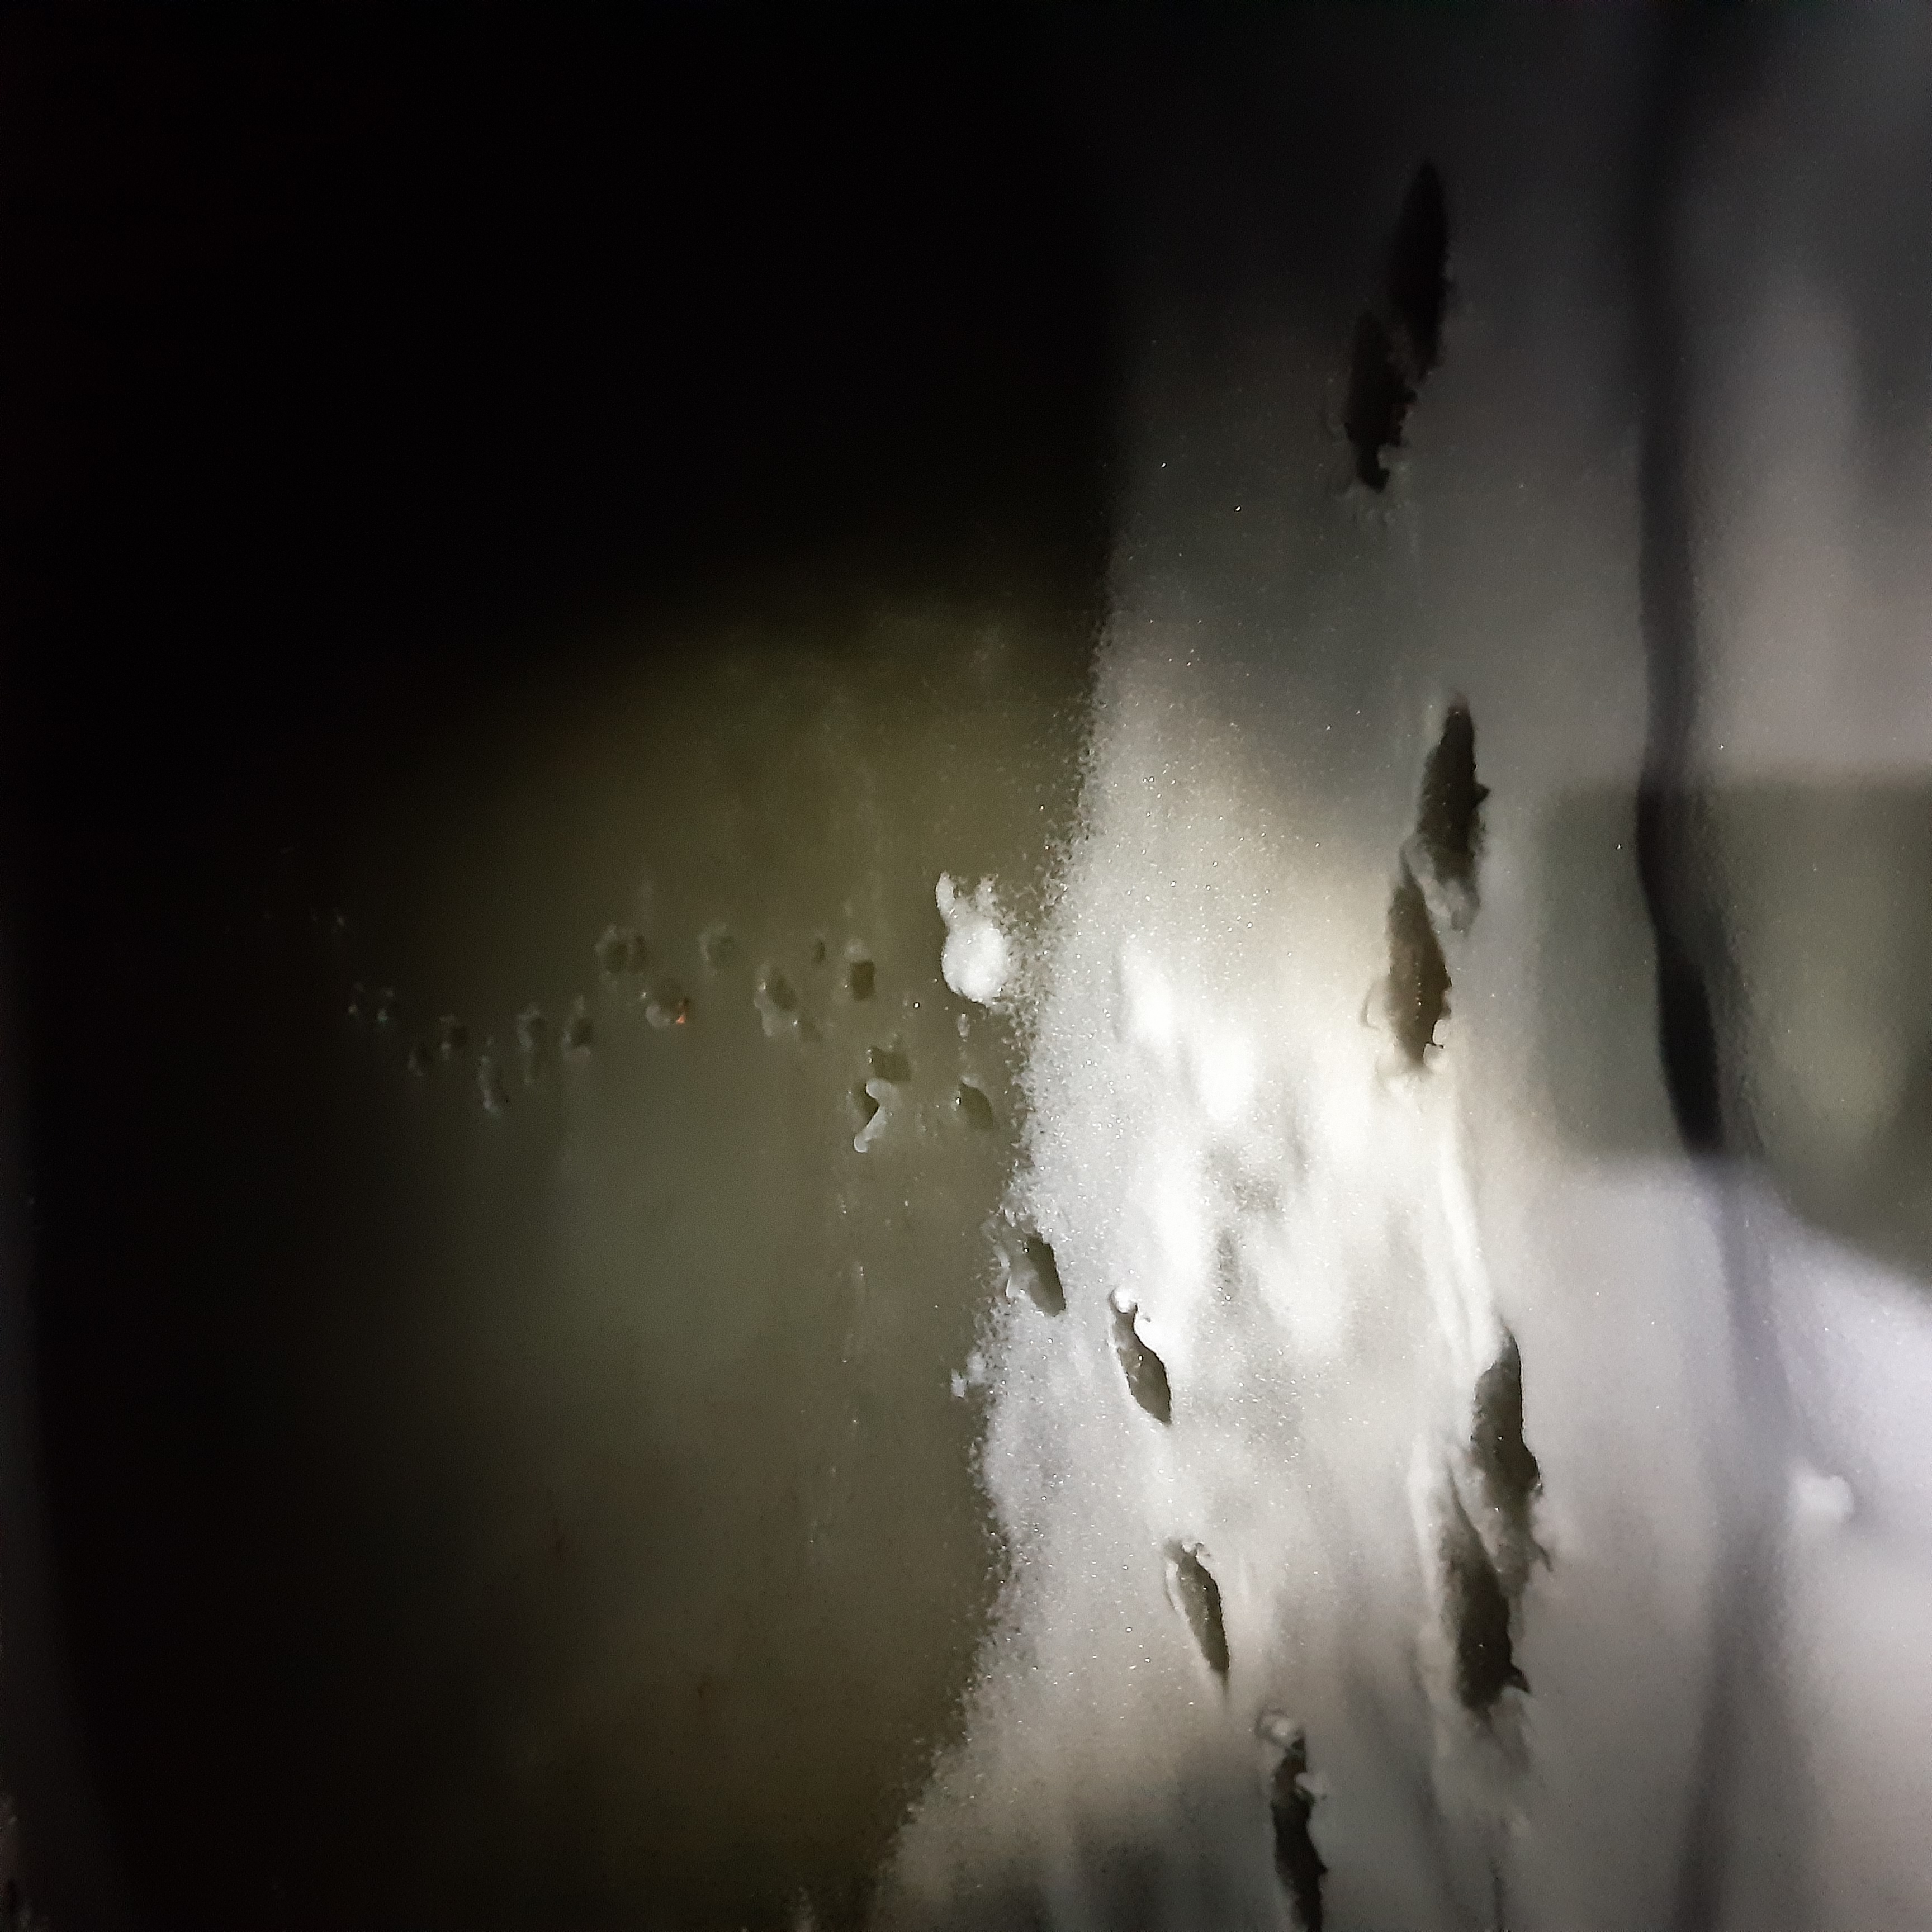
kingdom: Animalia
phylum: Chordata
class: Mammalia
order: Carnivora
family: Mustelidae
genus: Lutra
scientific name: Lutra lutra
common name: Odder
